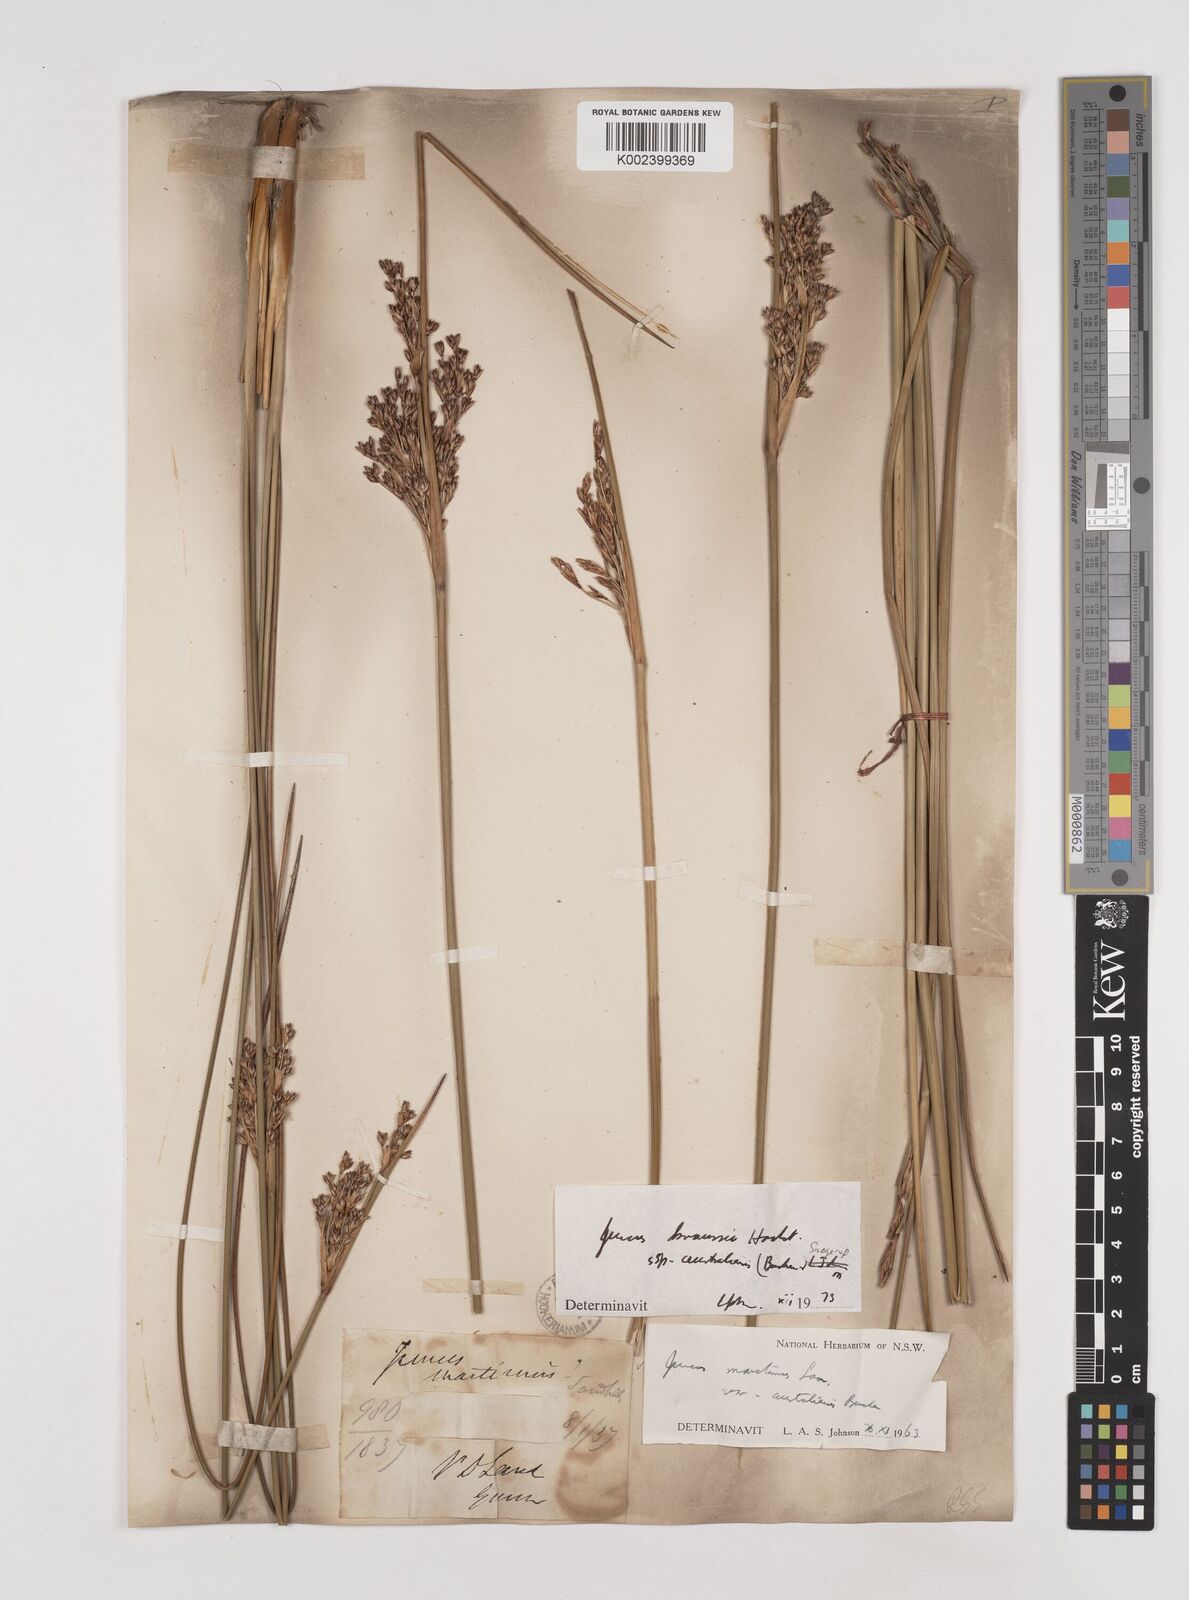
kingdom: Plantae
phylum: Tracheophyta
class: Liliopsida
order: Poales
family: Juncaceae
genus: Juncus
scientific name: Juncus kraussii
